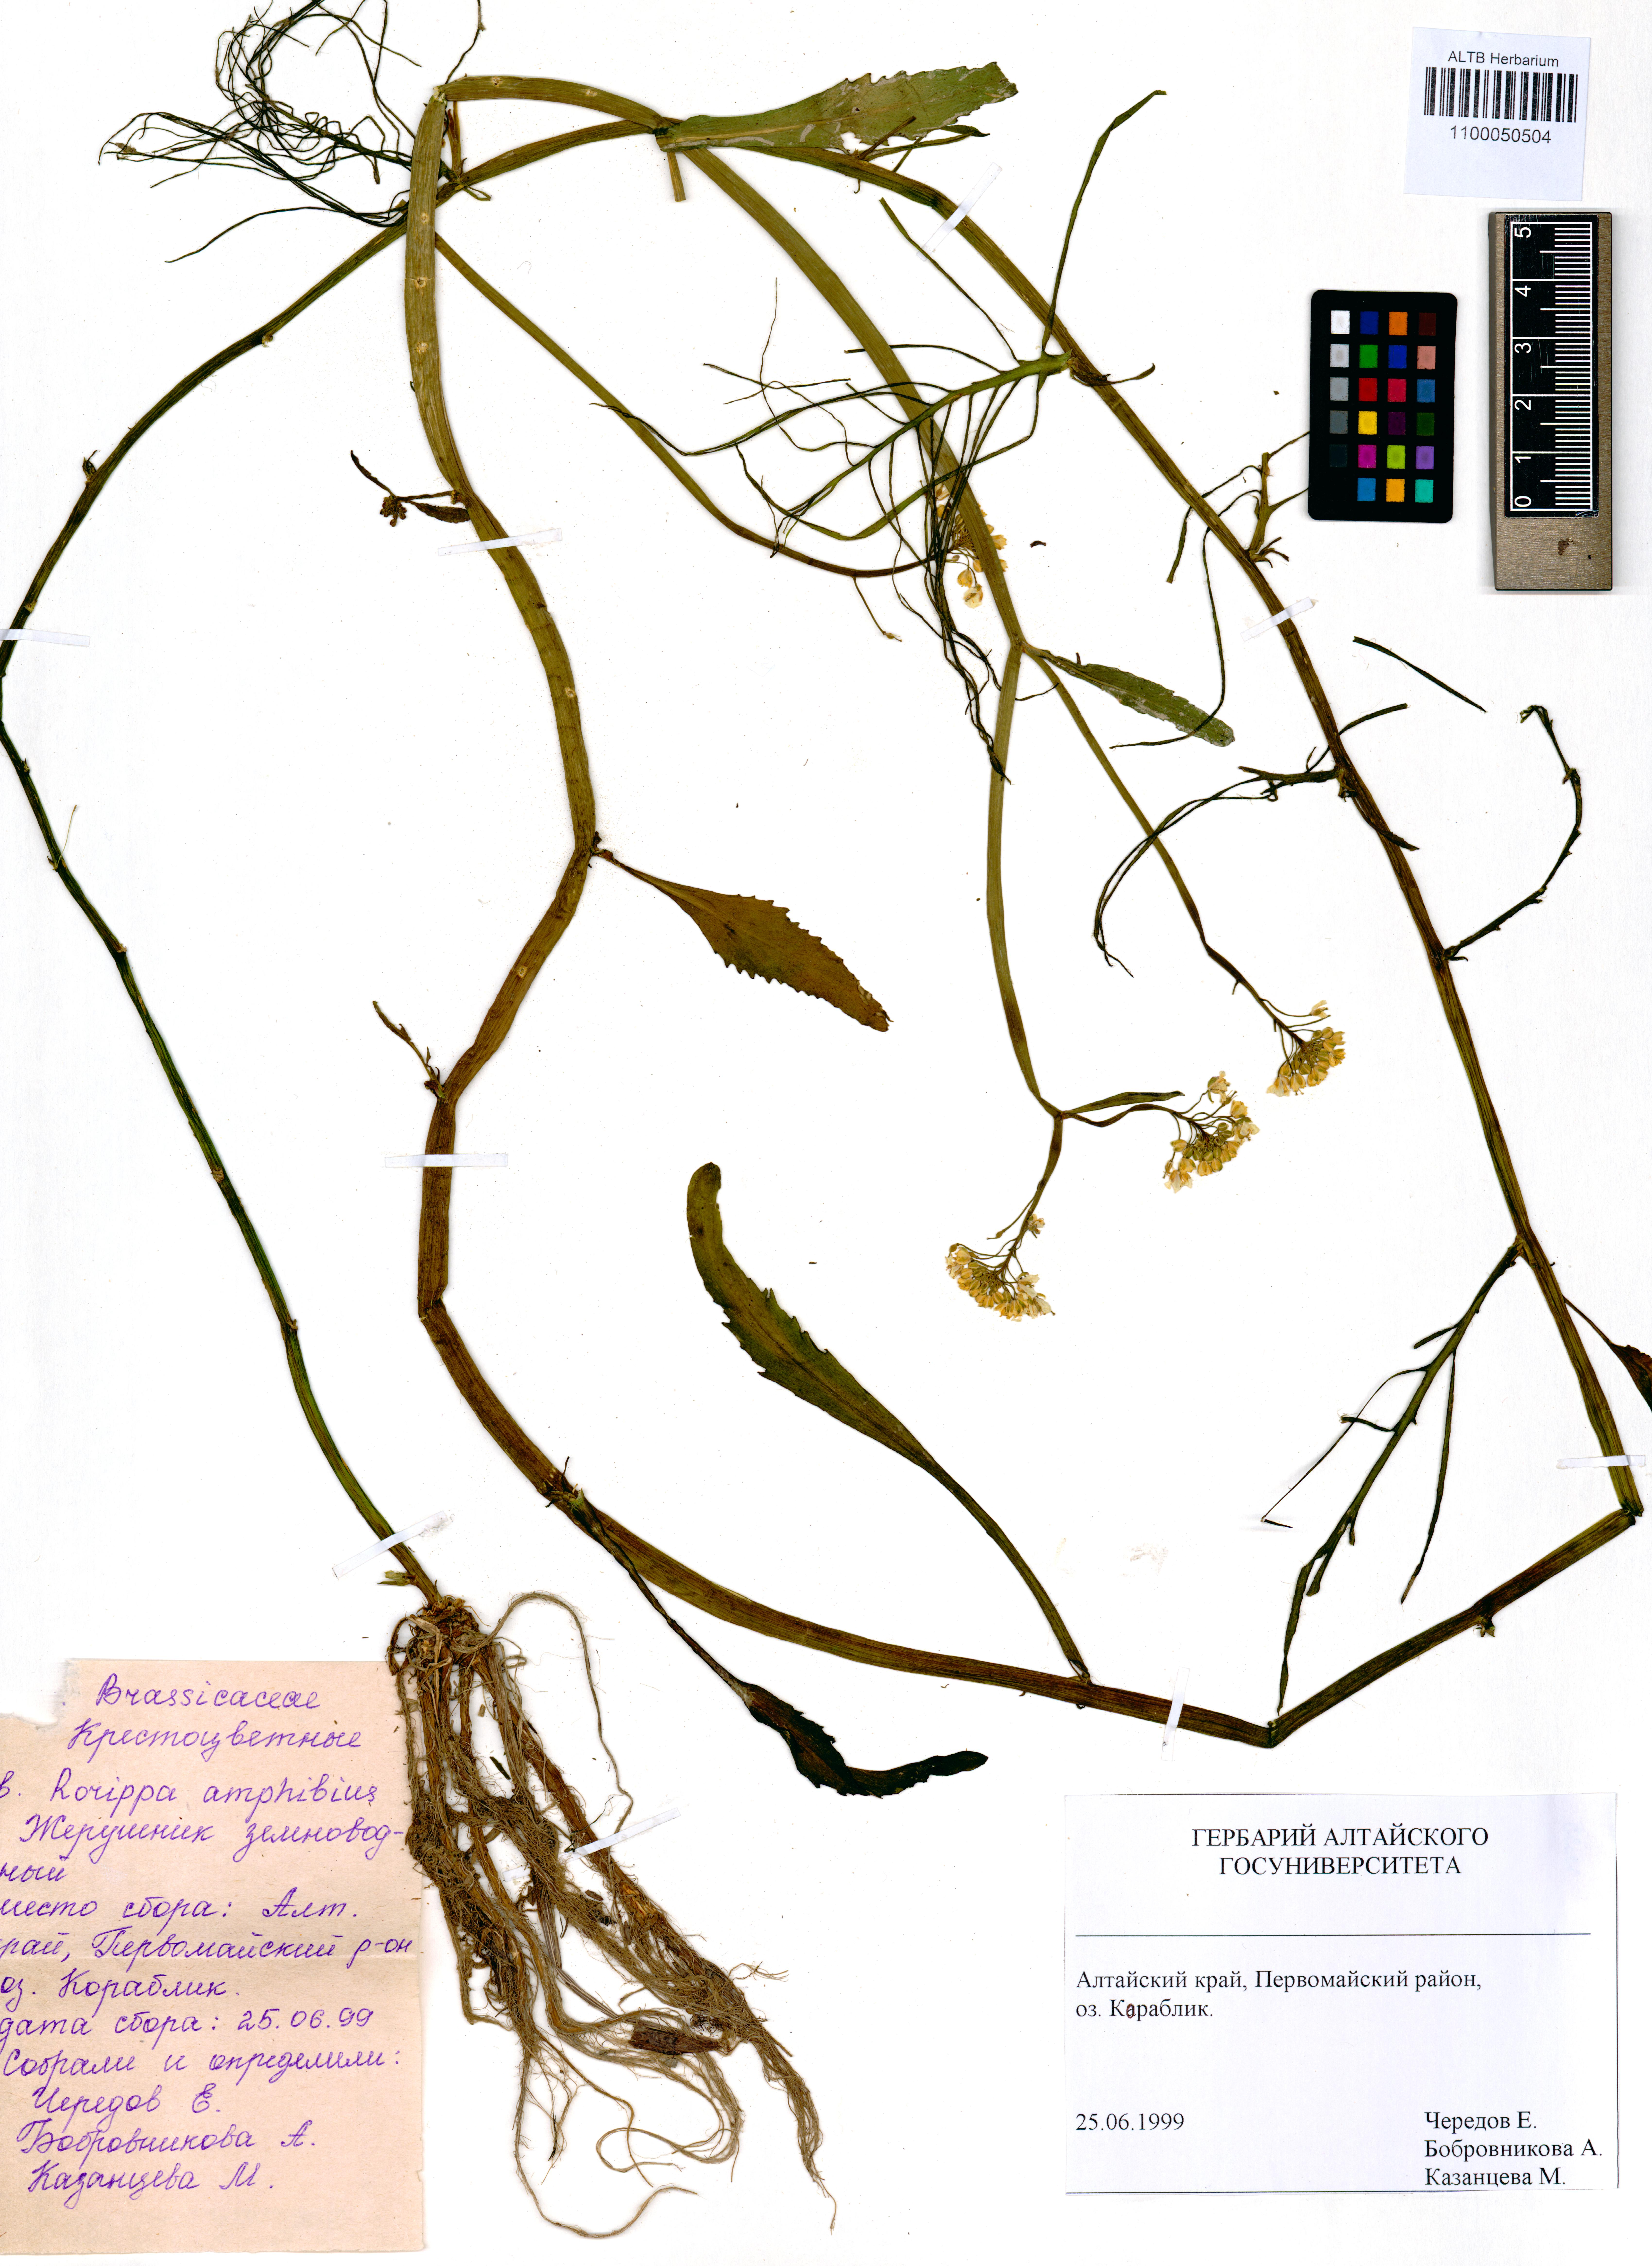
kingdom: Plantae
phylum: Tracheophyta
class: Magnoliopsida
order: Brassicales
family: Brassicaceae
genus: Rorippa
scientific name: Rorippa amphibia
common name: Great yellow-cress
